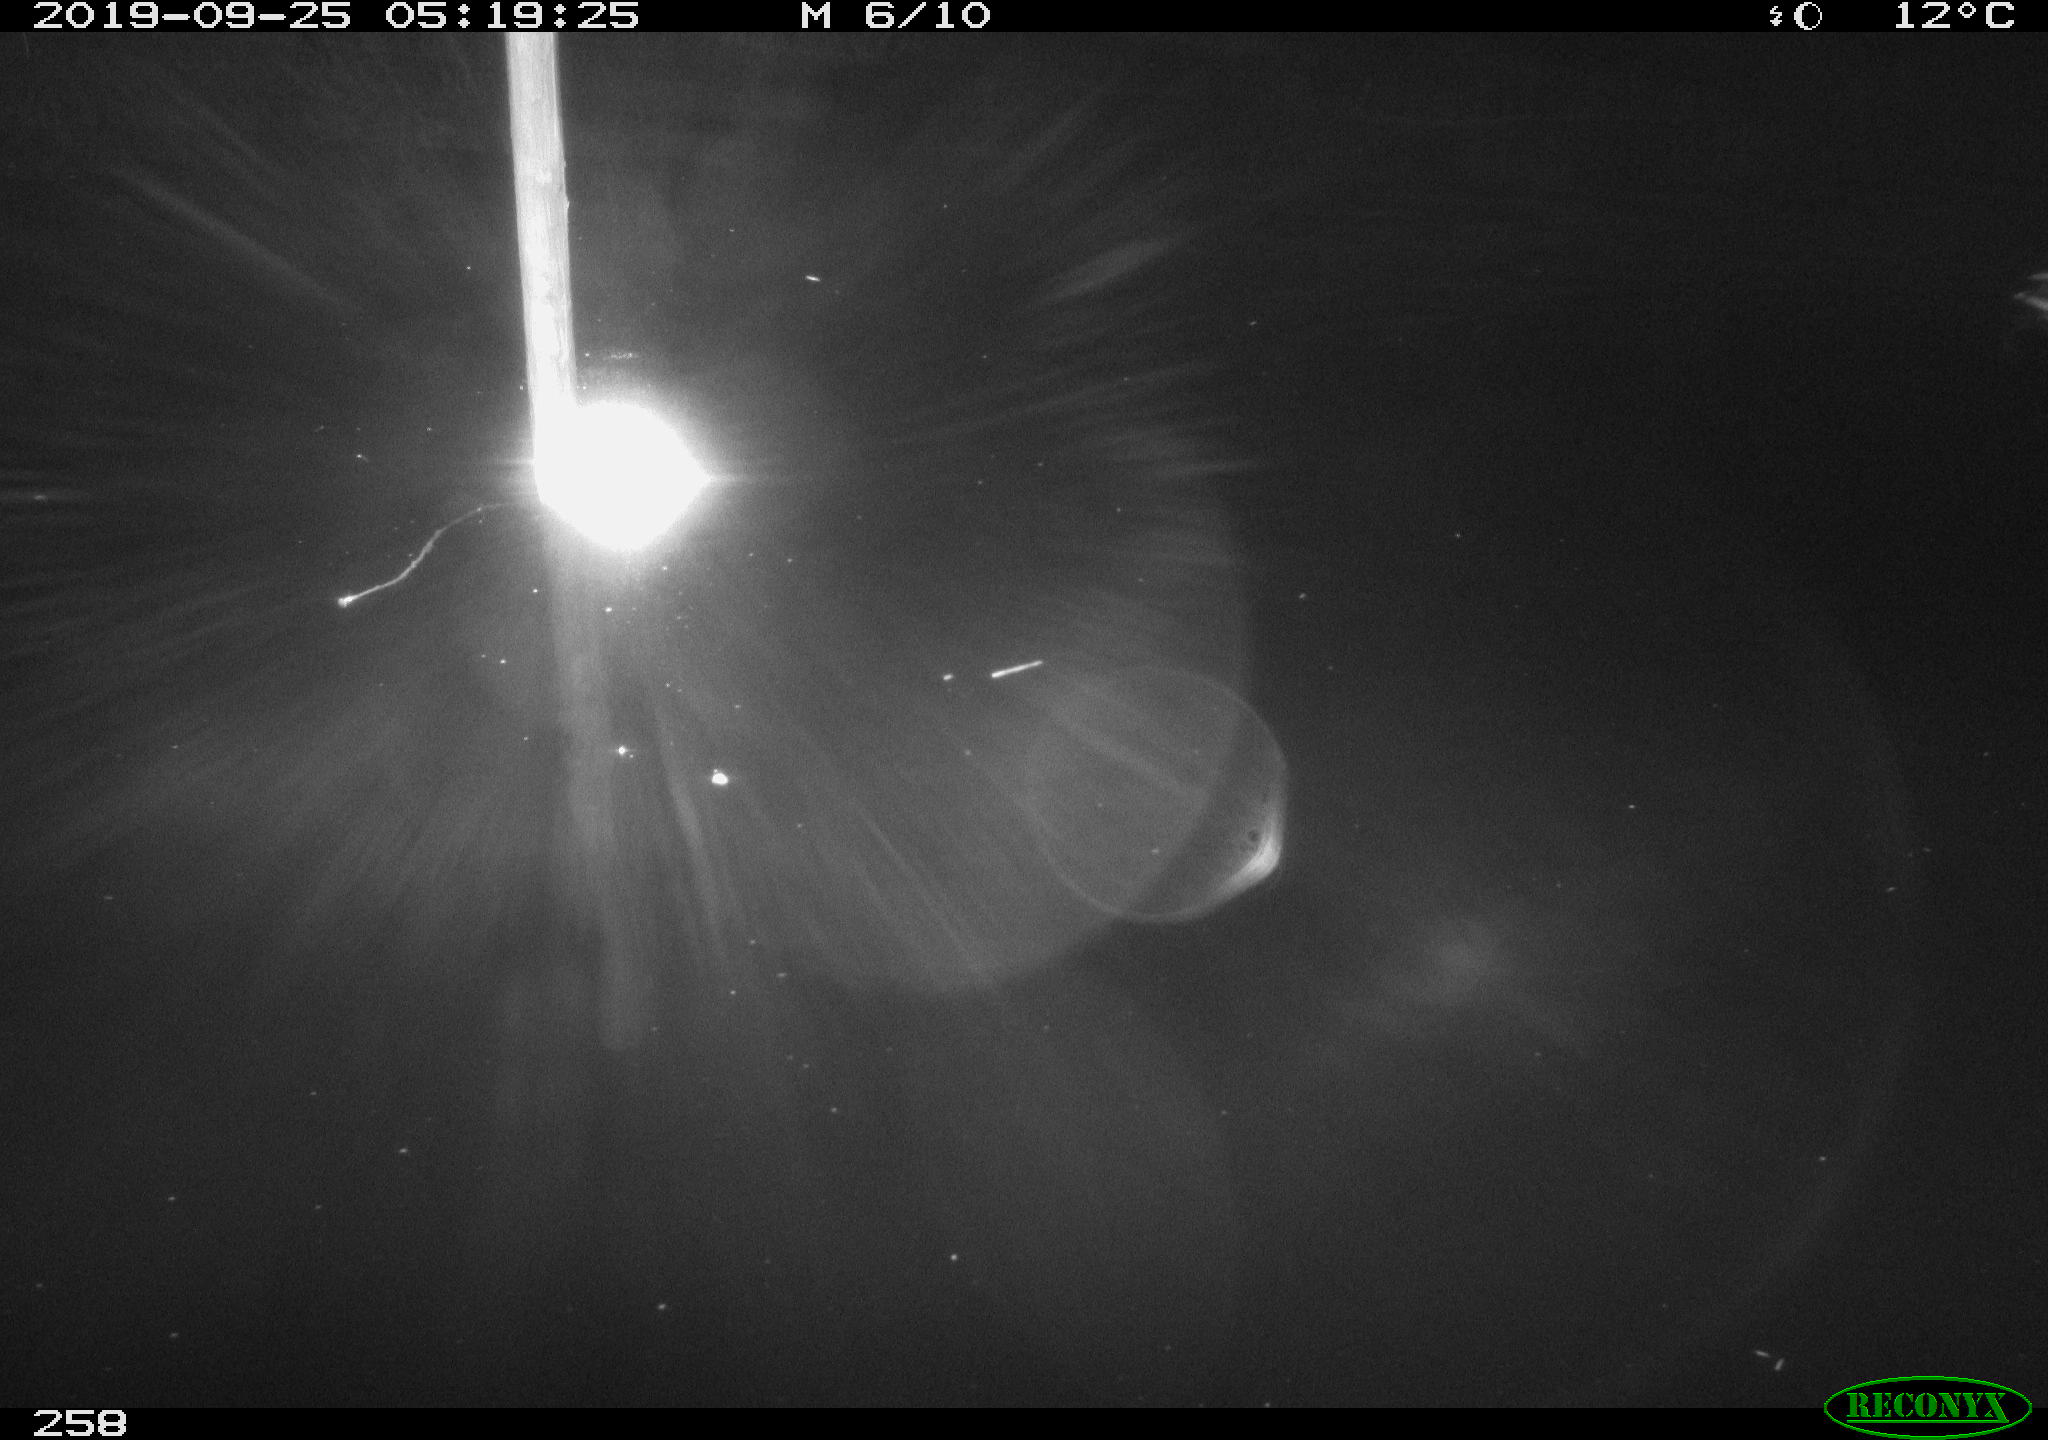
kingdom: Animalia
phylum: Chordata
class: Aves
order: Anseriformes
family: Anatidae
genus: Anas
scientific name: Anas platyrhynchos
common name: Mallard
